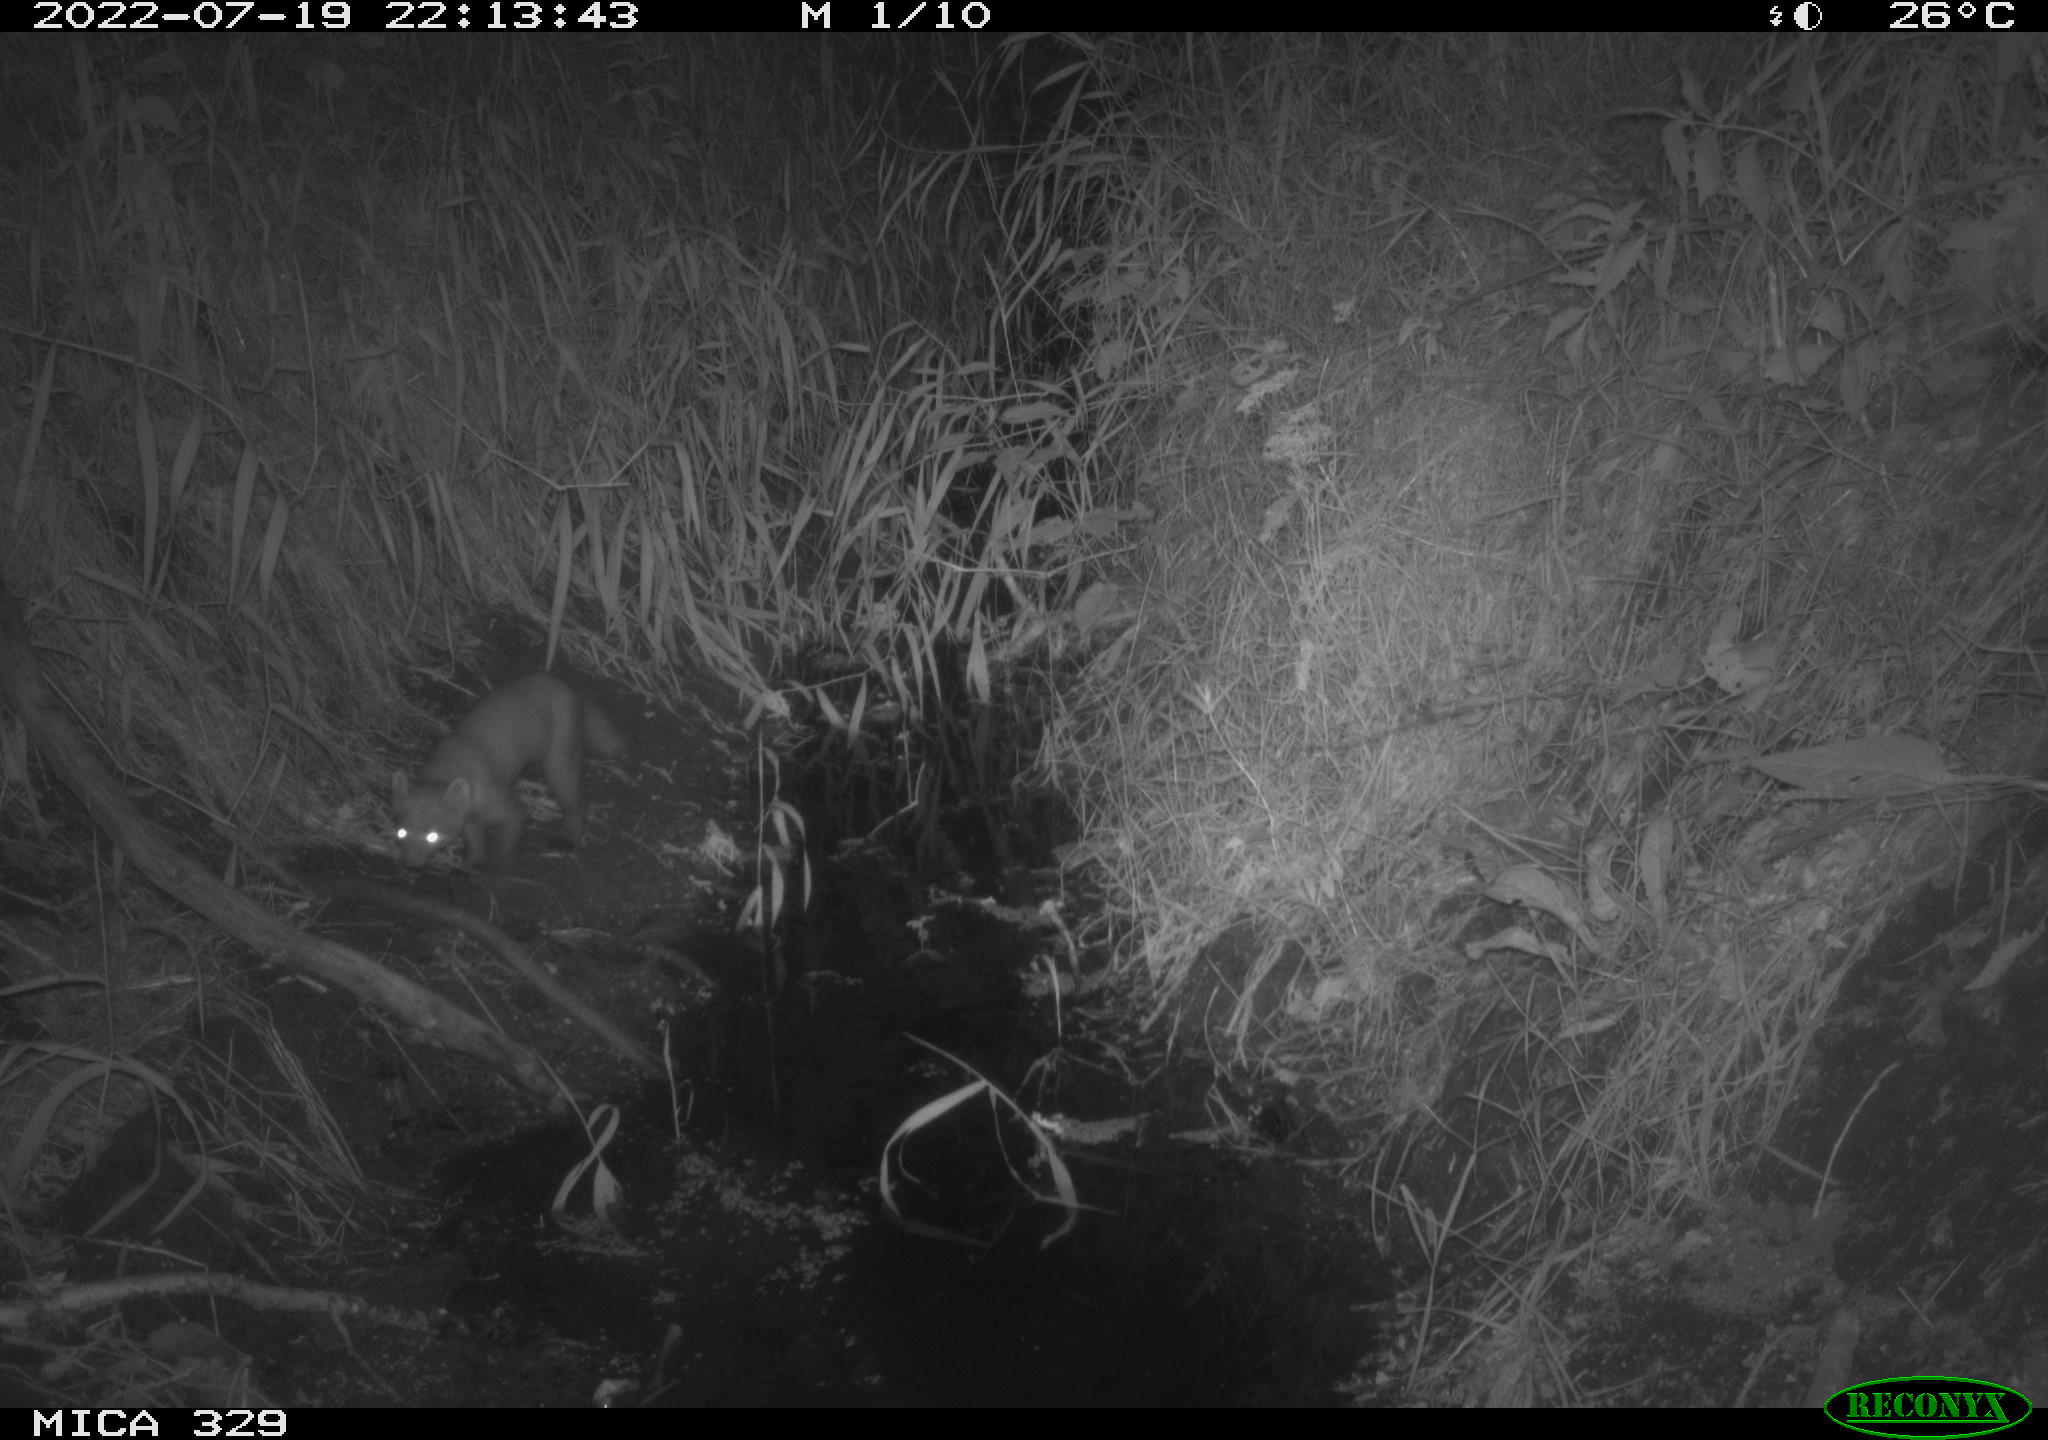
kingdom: Animalia
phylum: Chordata
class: Mammalia
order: Carnivora
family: Mustelidae
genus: Martes
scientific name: Martes foina
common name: Beech marten
